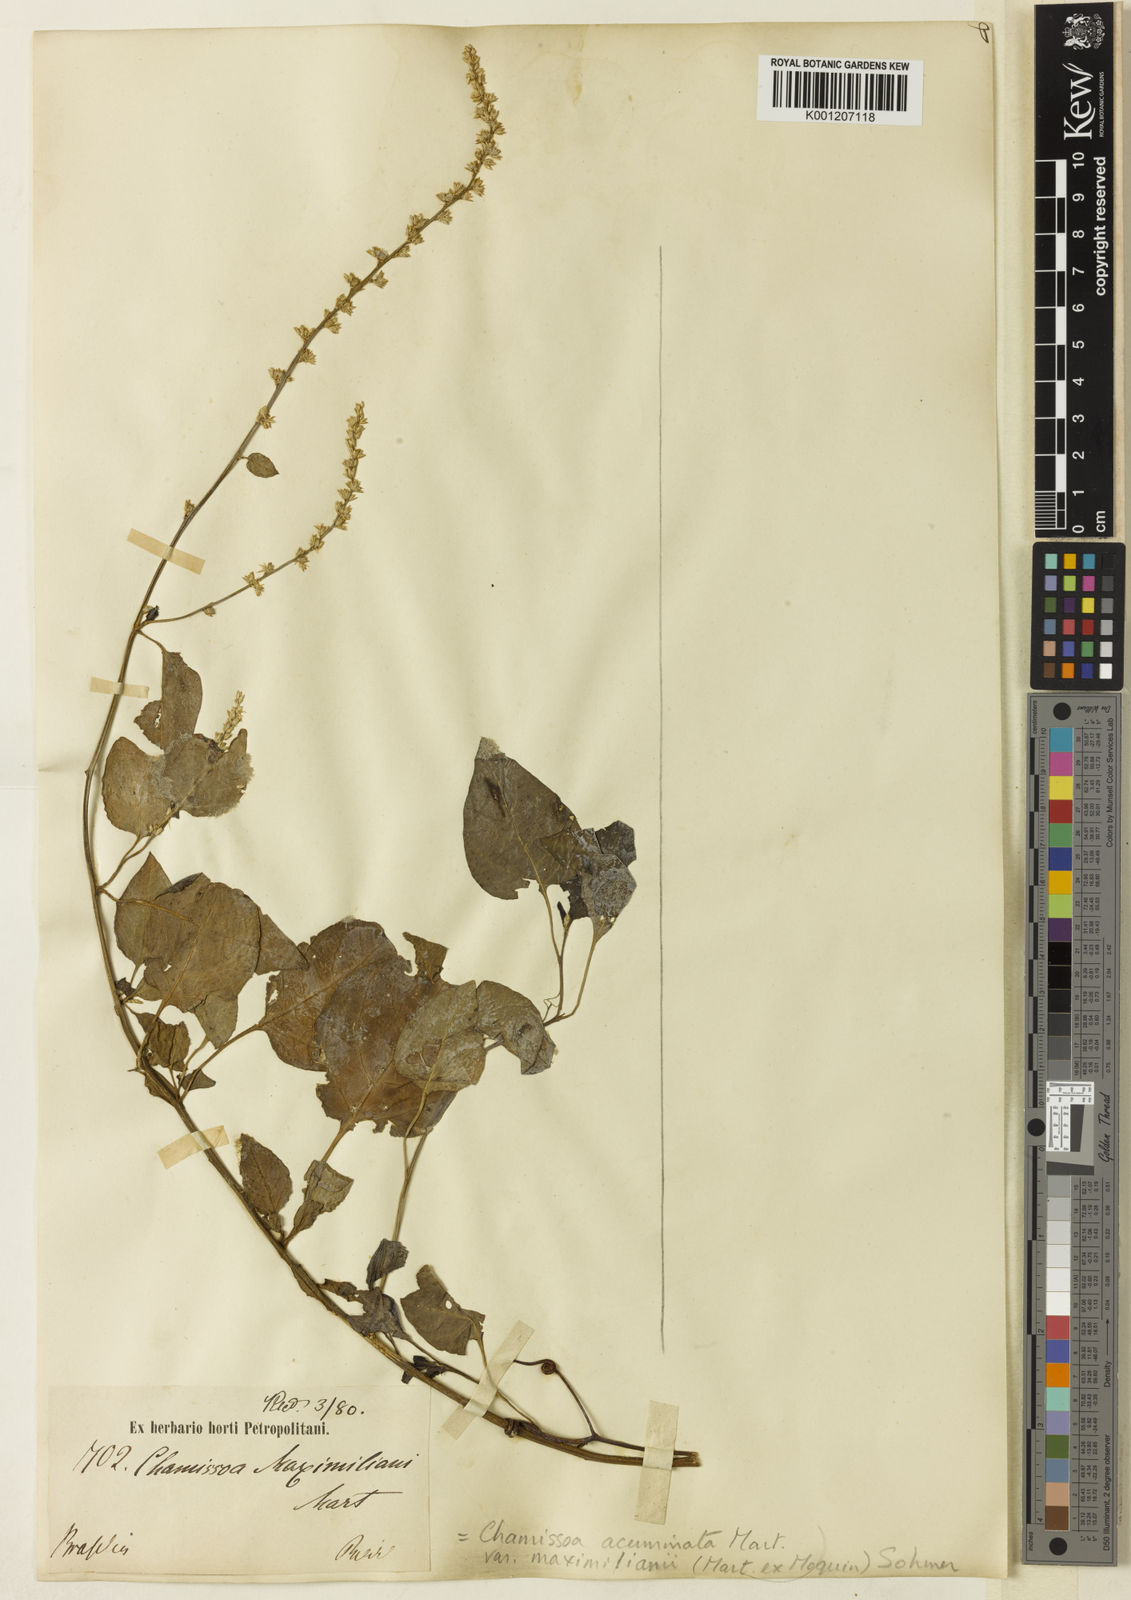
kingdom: Plantae
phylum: Tracheophyta
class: Magnoliopsida
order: Caryophyllales
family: Amaranthaceae
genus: Chamissoa
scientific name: Chamissoa maximiliani
